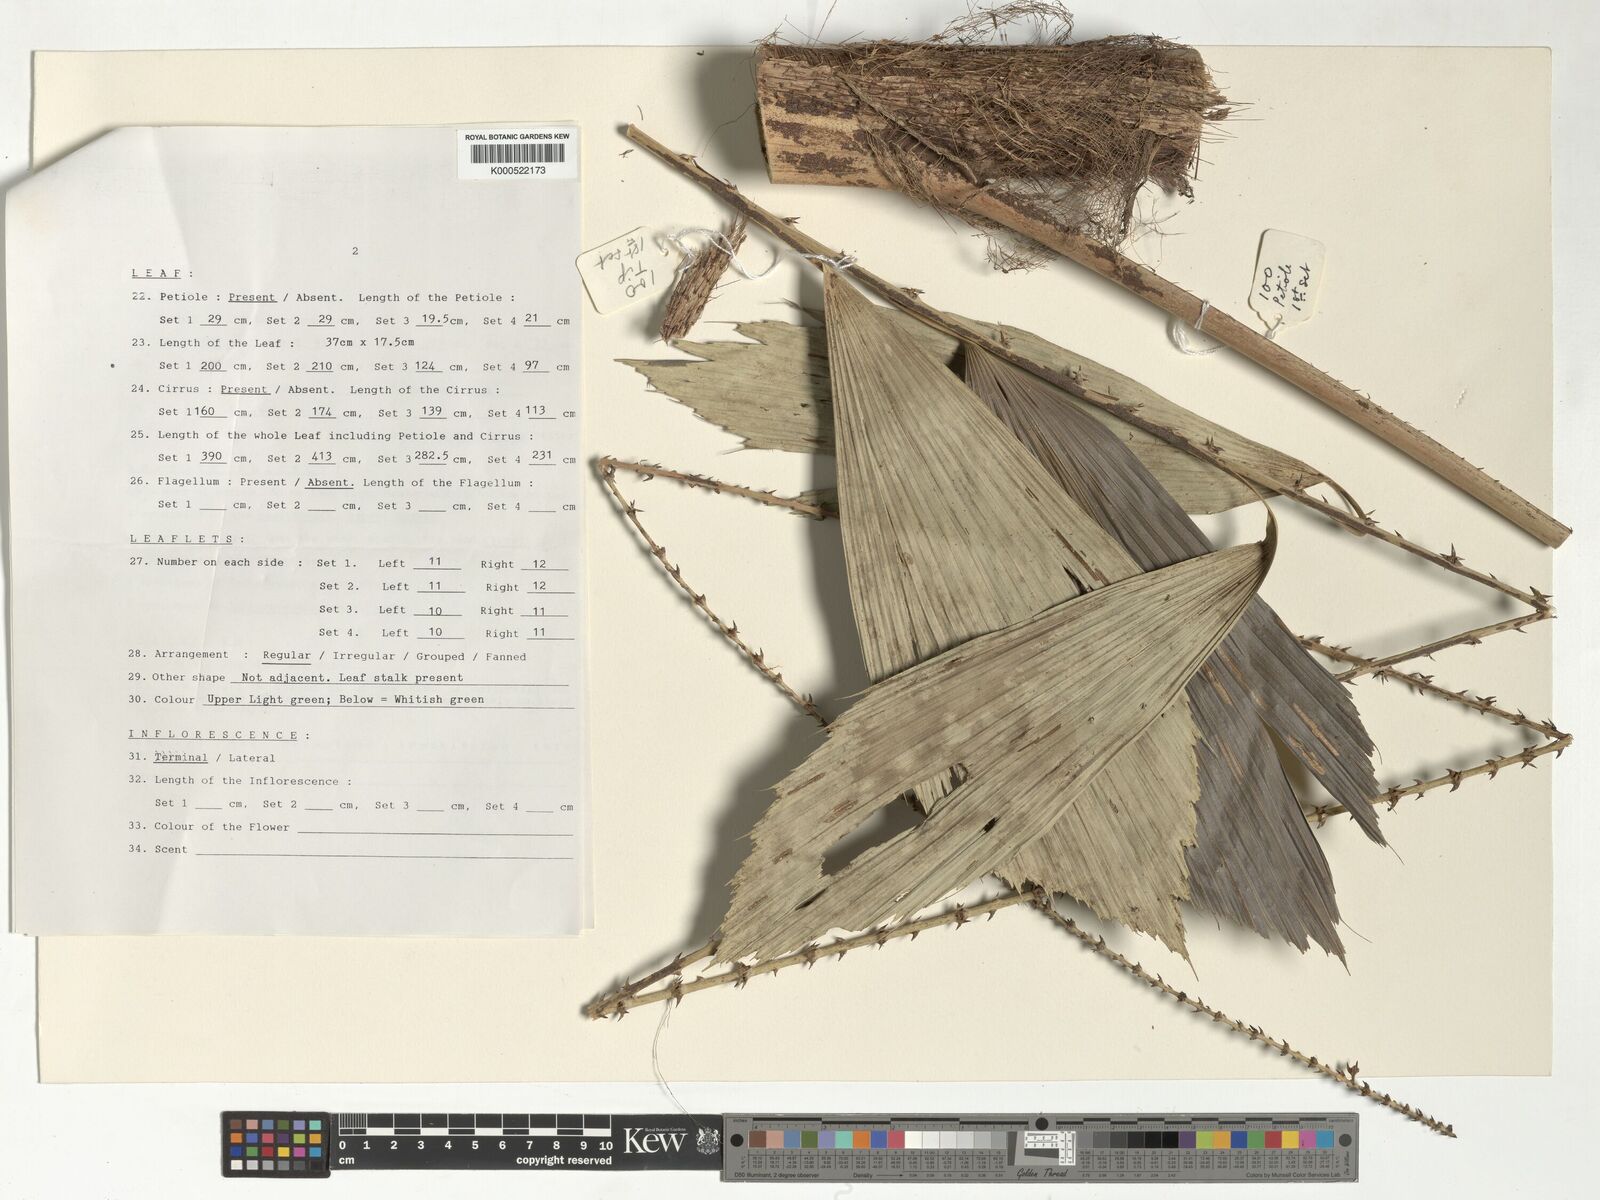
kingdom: Plantae
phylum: Tracheophyta
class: Liliopsida
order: Arecales
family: Arecaceae
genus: Korthalsia
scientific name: Korthalsia zippelii
